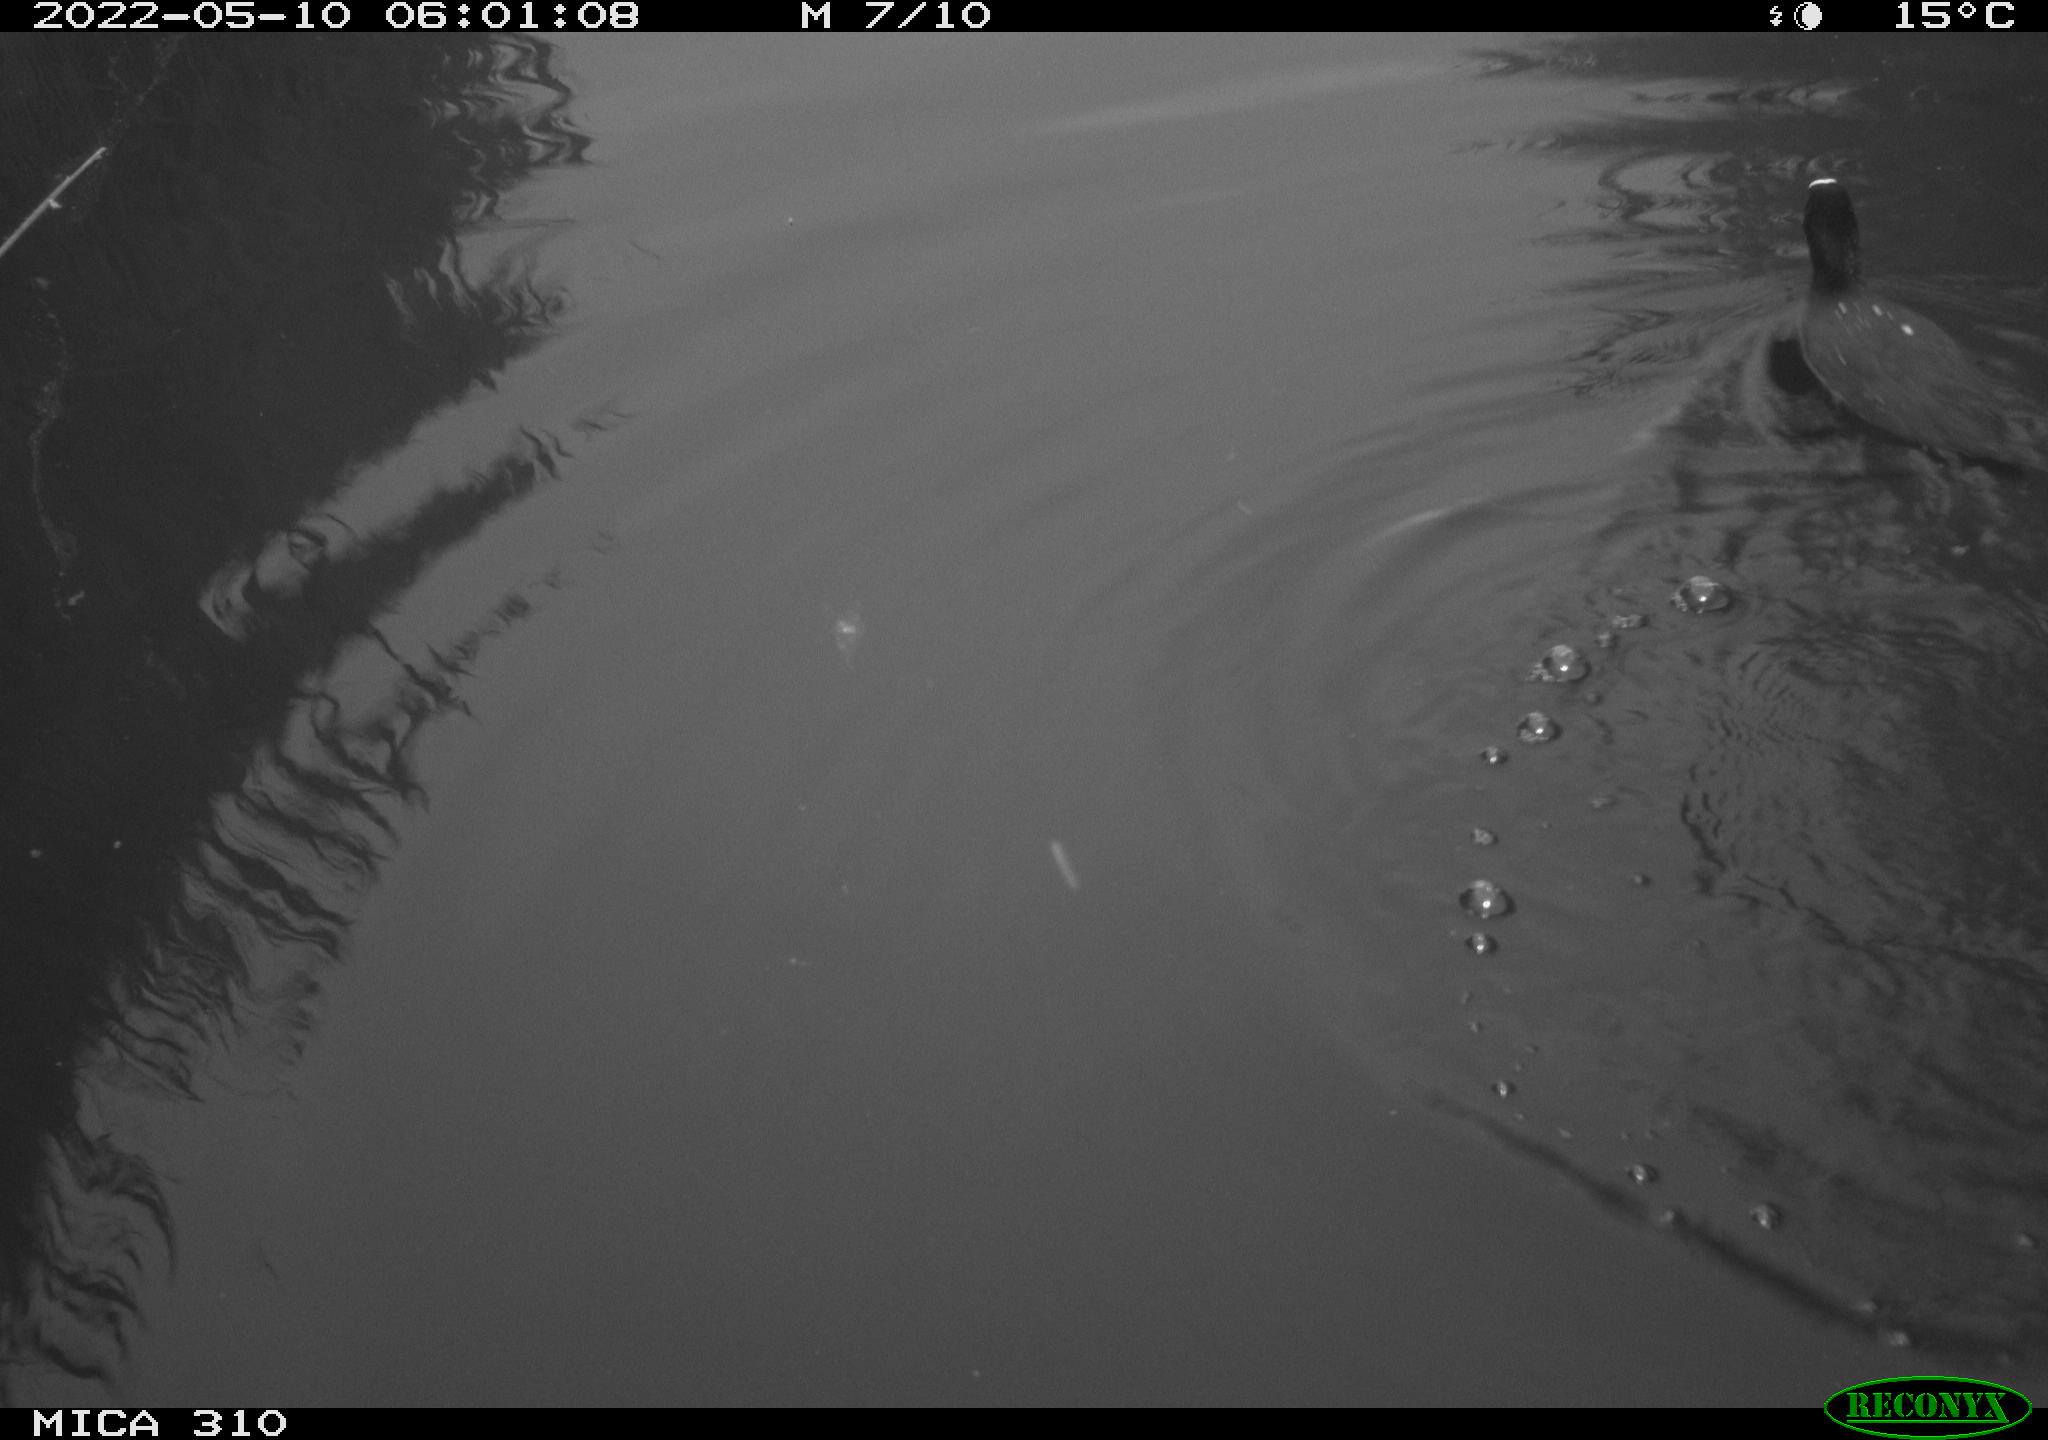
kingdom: Animalia
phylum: Chordata
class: Aves
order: Gruiformes
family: Rallidae
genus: Fulica
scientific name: Fulica atra
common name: Eurasian coot
